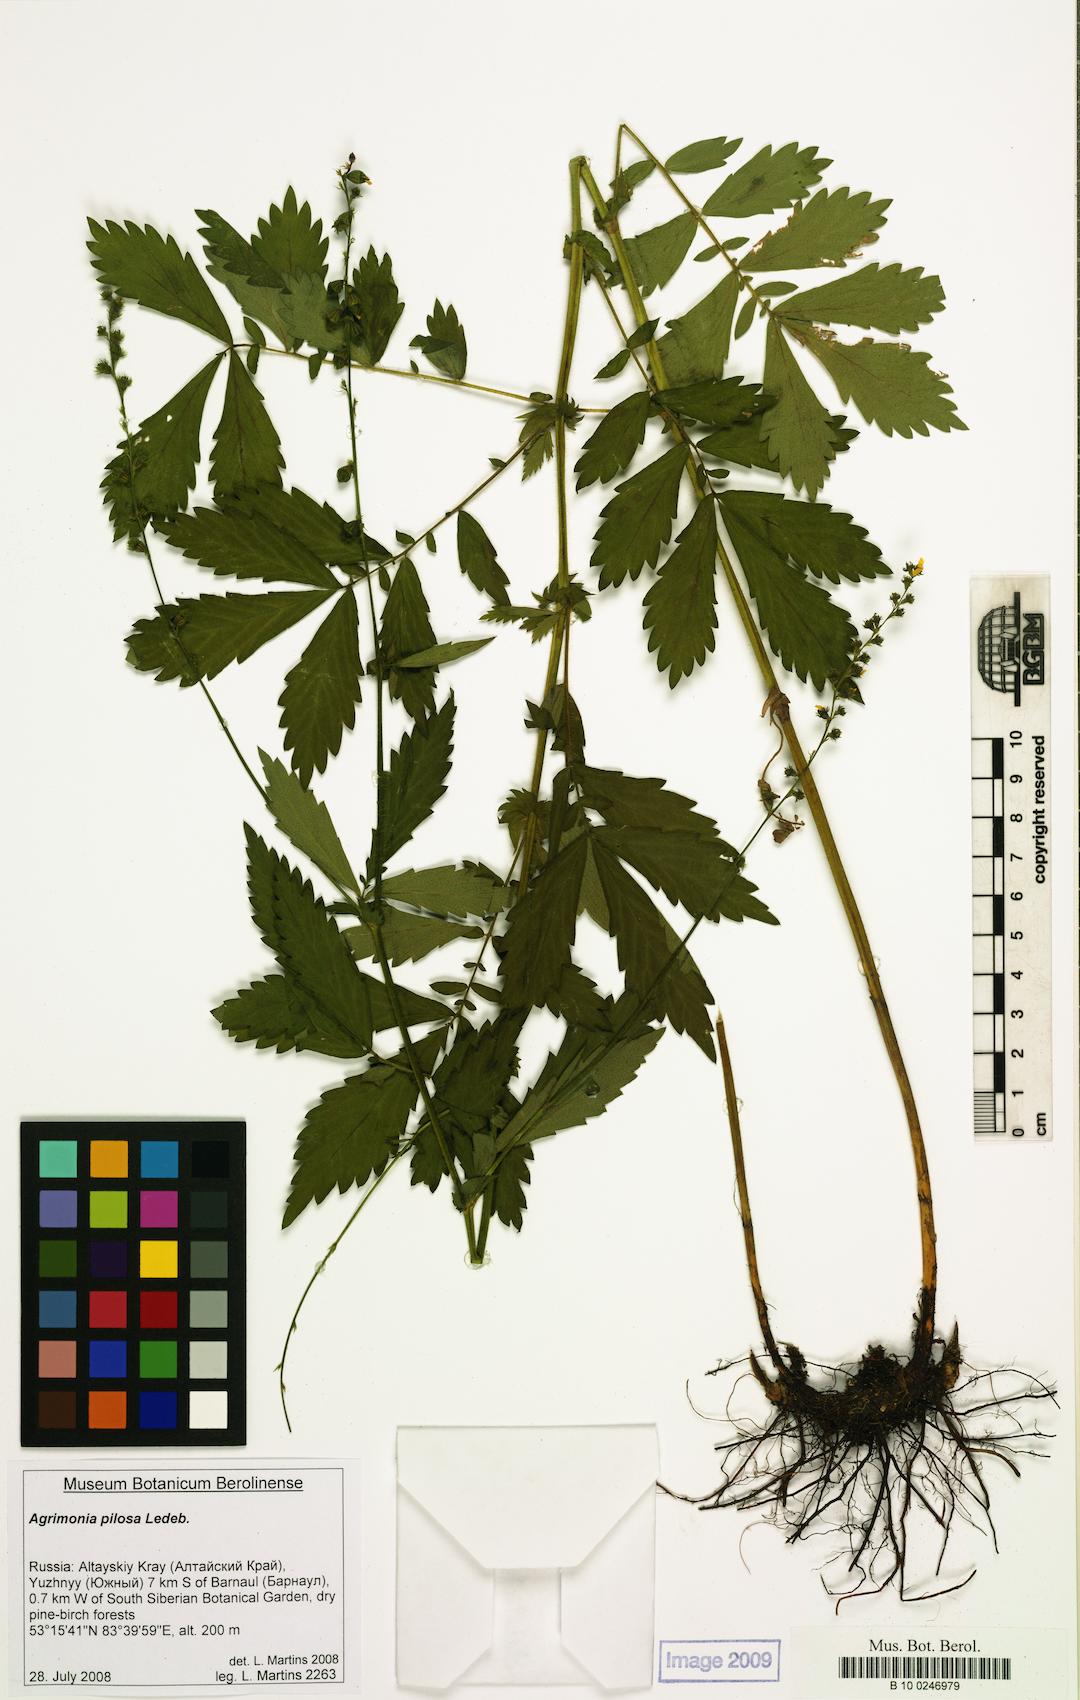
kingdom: Plantae
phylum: Tracheophyta
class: Magnoliopsida
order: Rosales
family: Rosaceae
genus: Agrimonia
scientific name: Agrimonia pilosa
